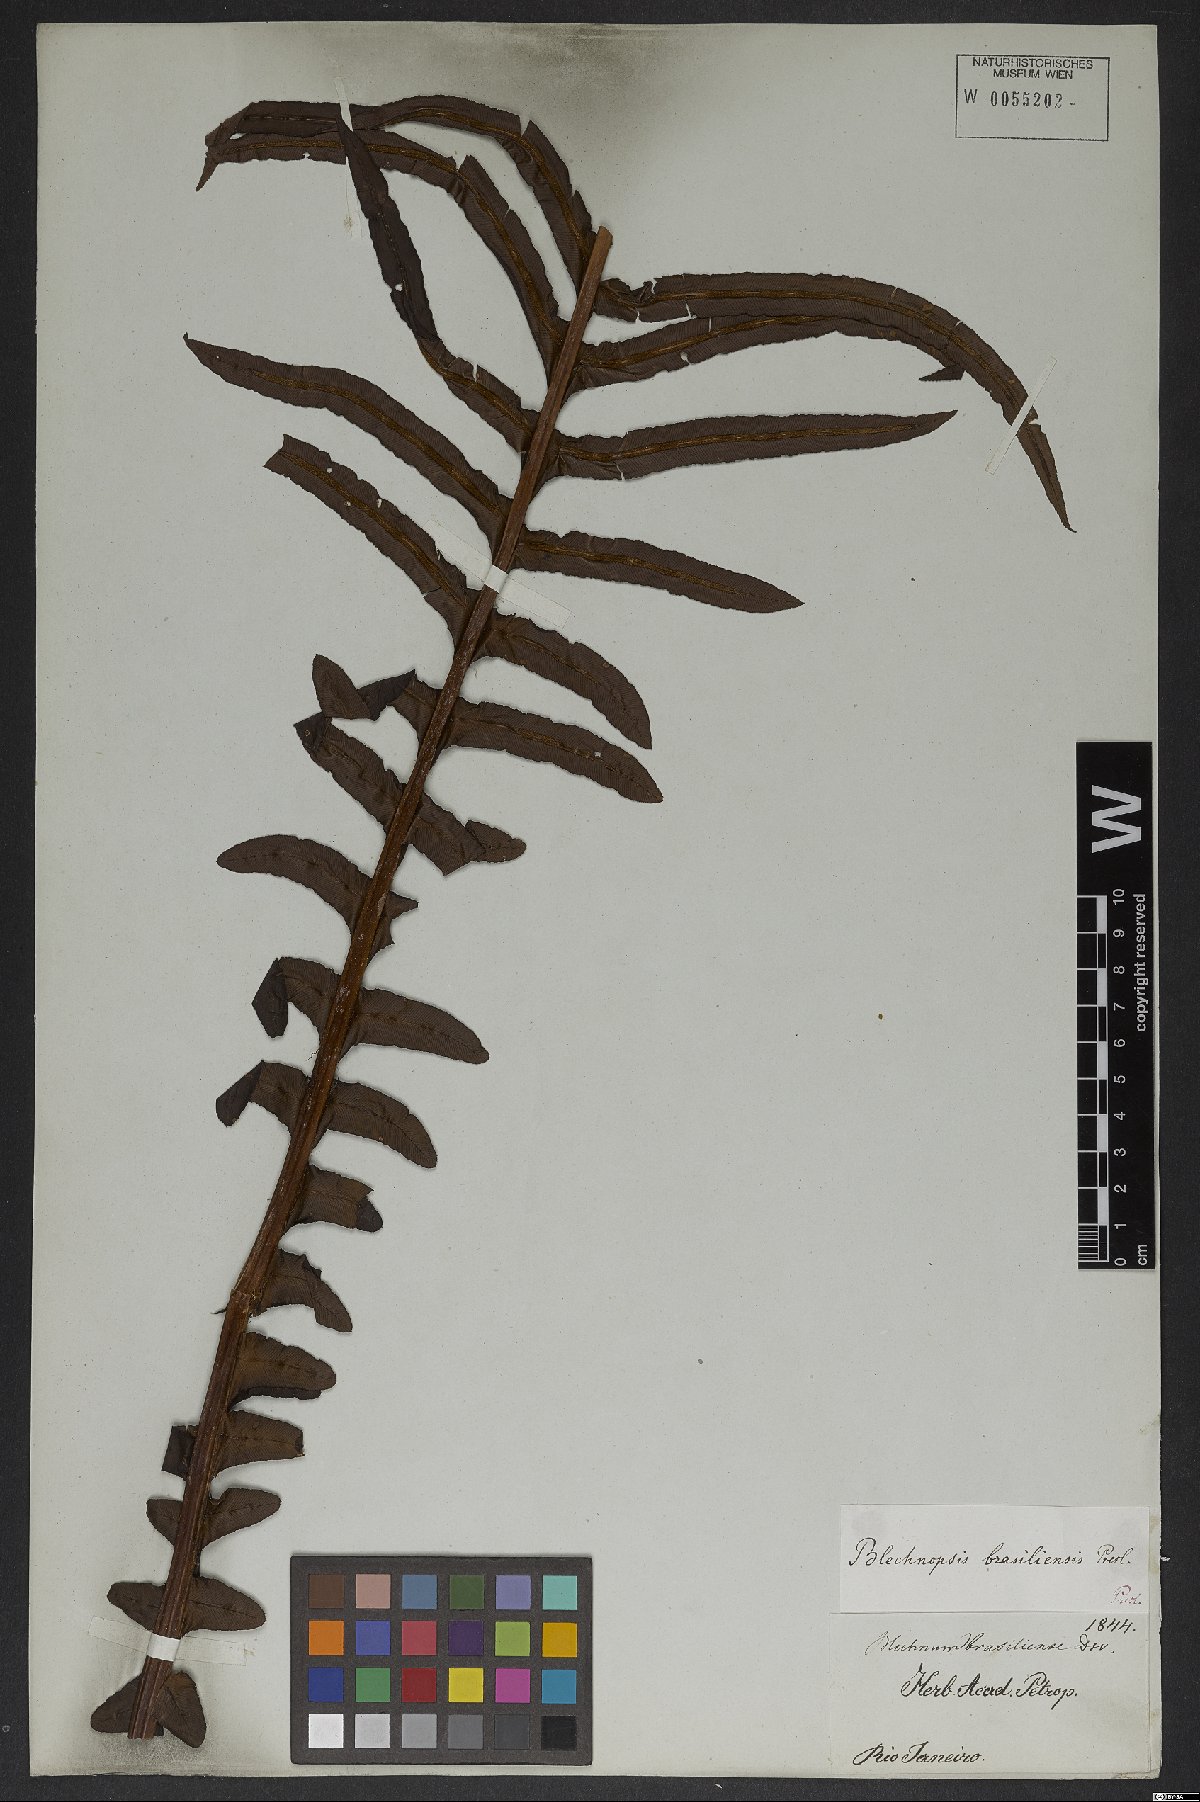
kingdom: Plantae
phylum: Tracheophyta
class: Polypodiopsida
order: Polypodiales
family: Blechnaceae
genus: Neoblechnum
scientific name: Neoblechnum brasiliense
